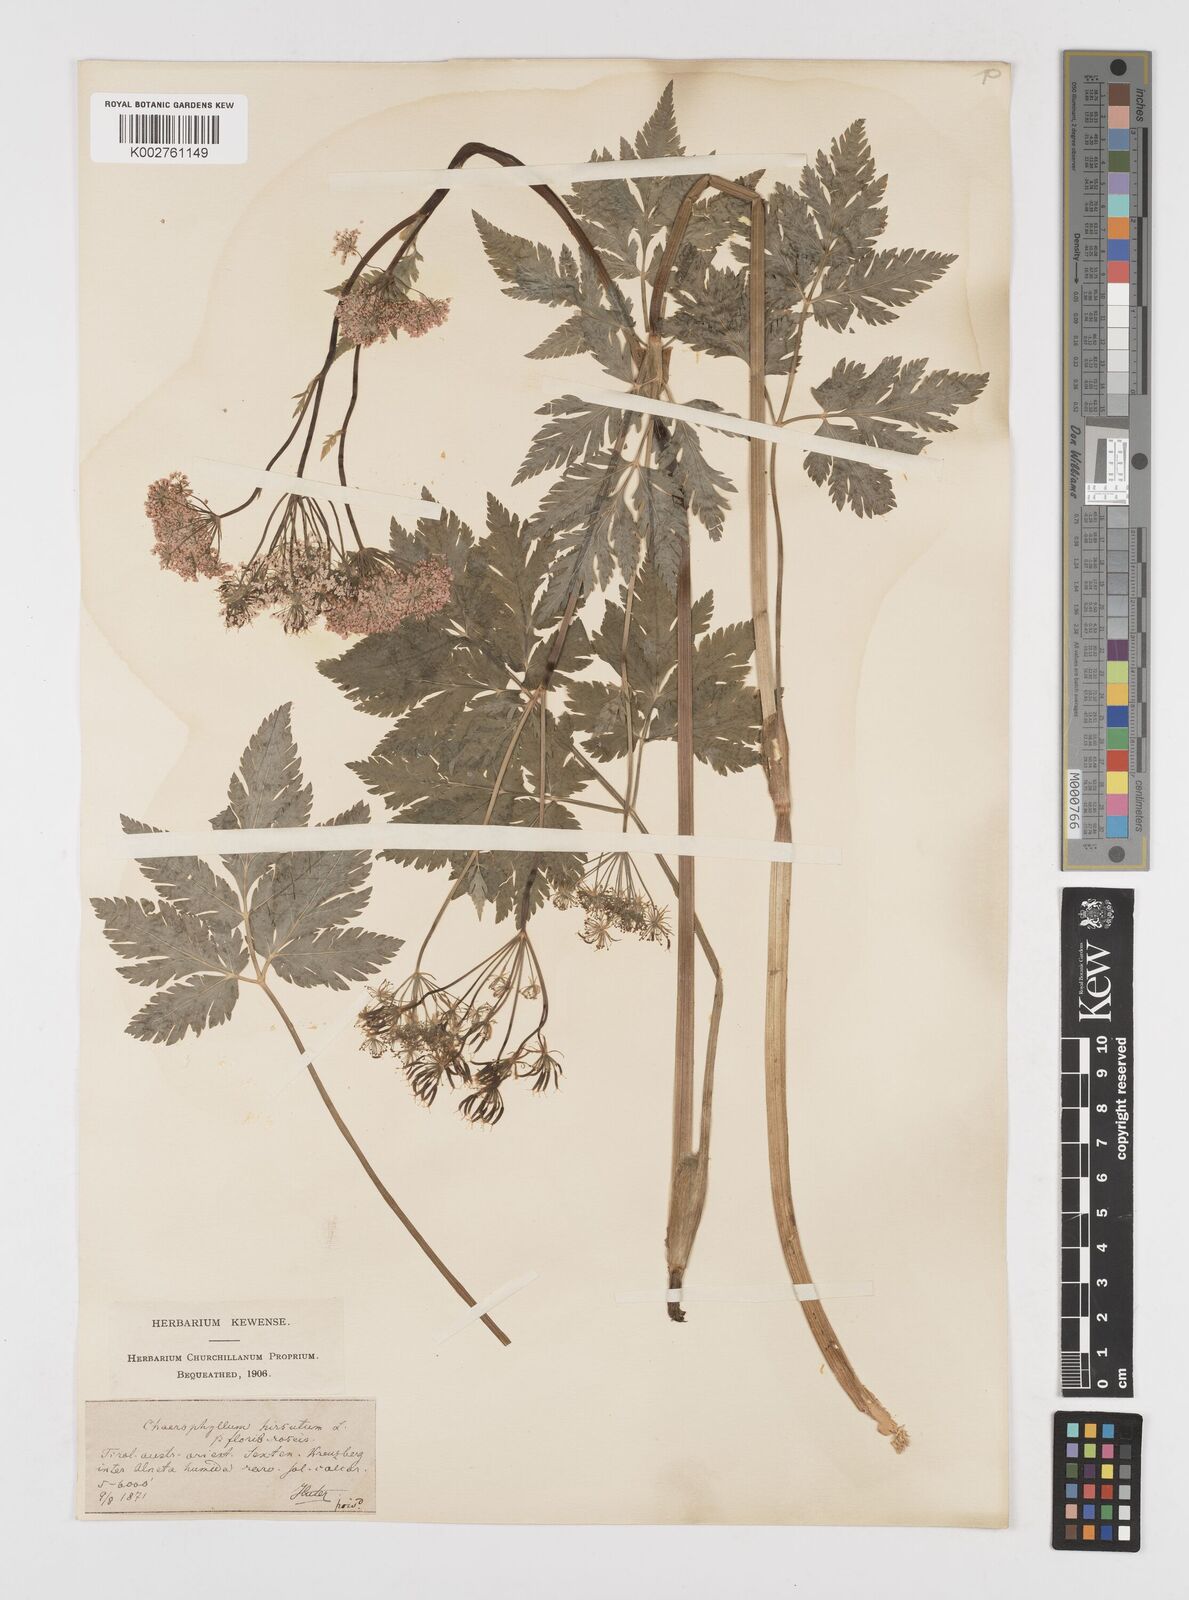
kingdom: Plantae
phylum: Tracheophyta
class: Magnoliopsida
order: Apiales
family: Apiaceae
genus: Chaerophyllum
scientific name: Chaerophyllum hirsutum
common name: Hairy chervil
